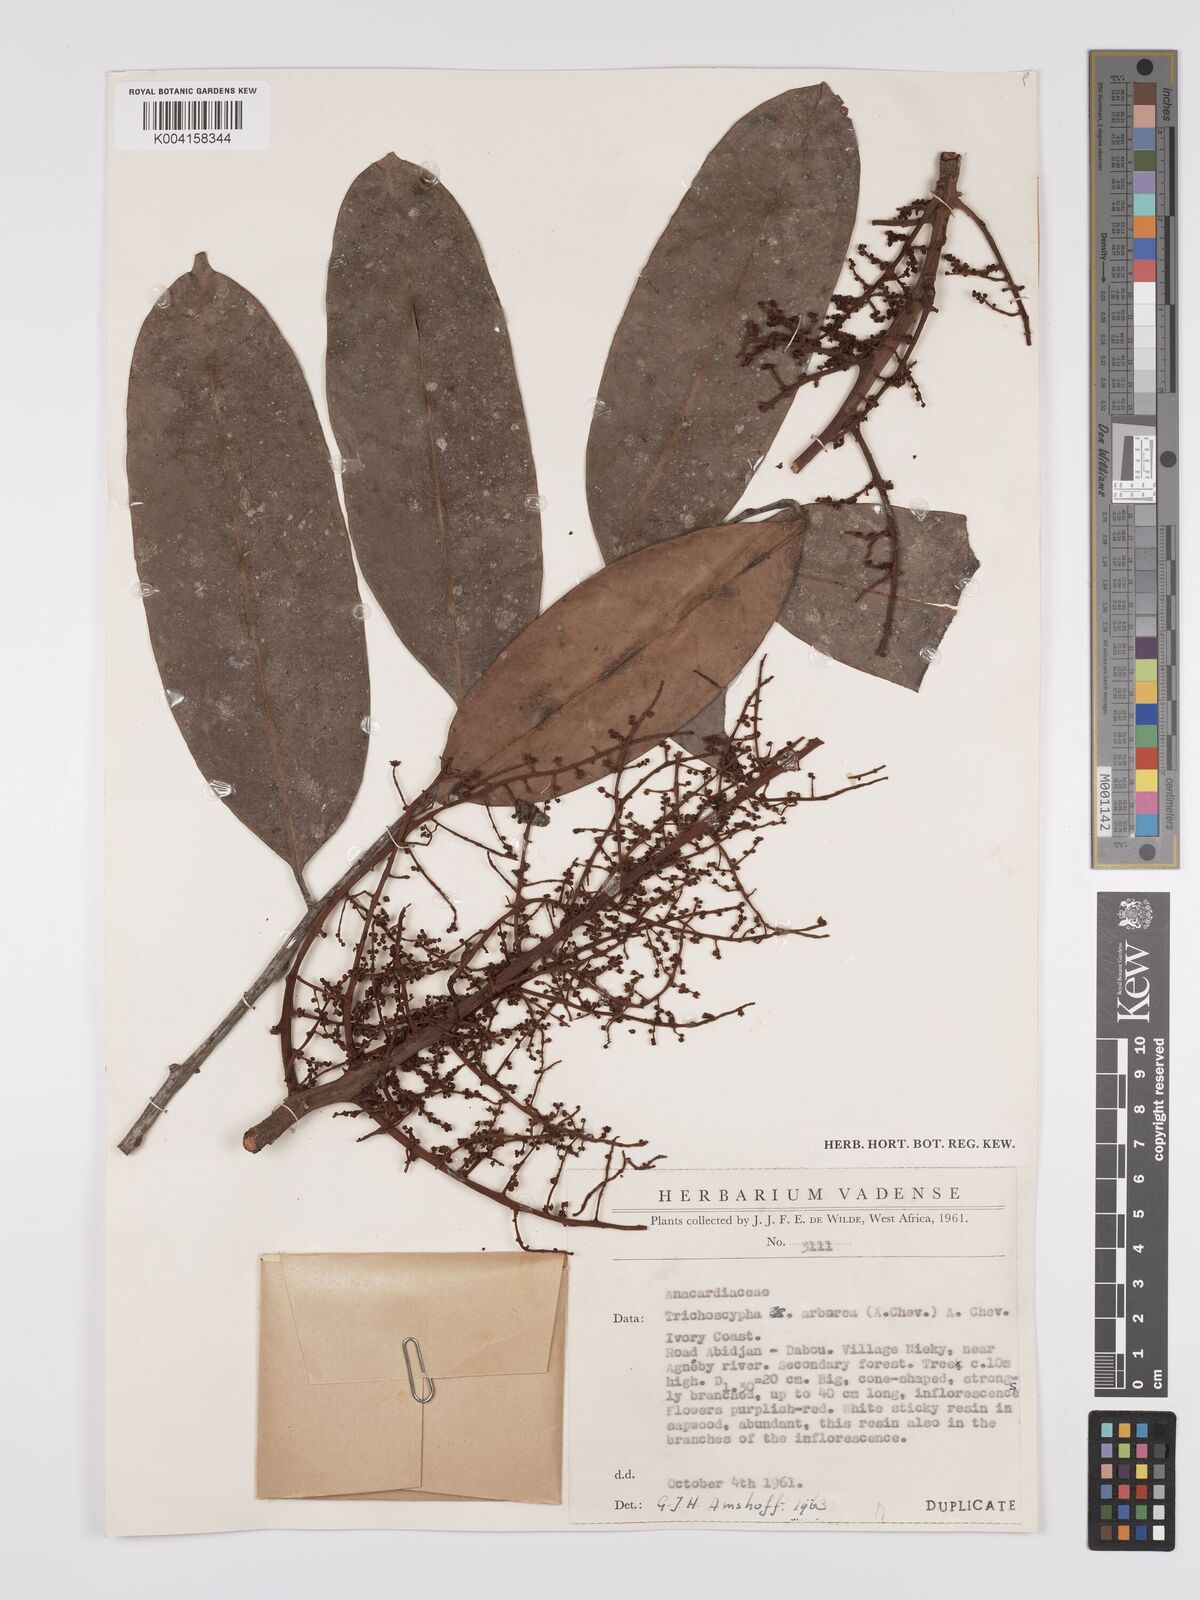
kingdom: Plantae
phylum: Tracheophyta
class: Magnoliopsida
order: Sapindales
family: Anacardiaceae
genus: Trichoscypha
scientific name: Trichoscypha arborea
